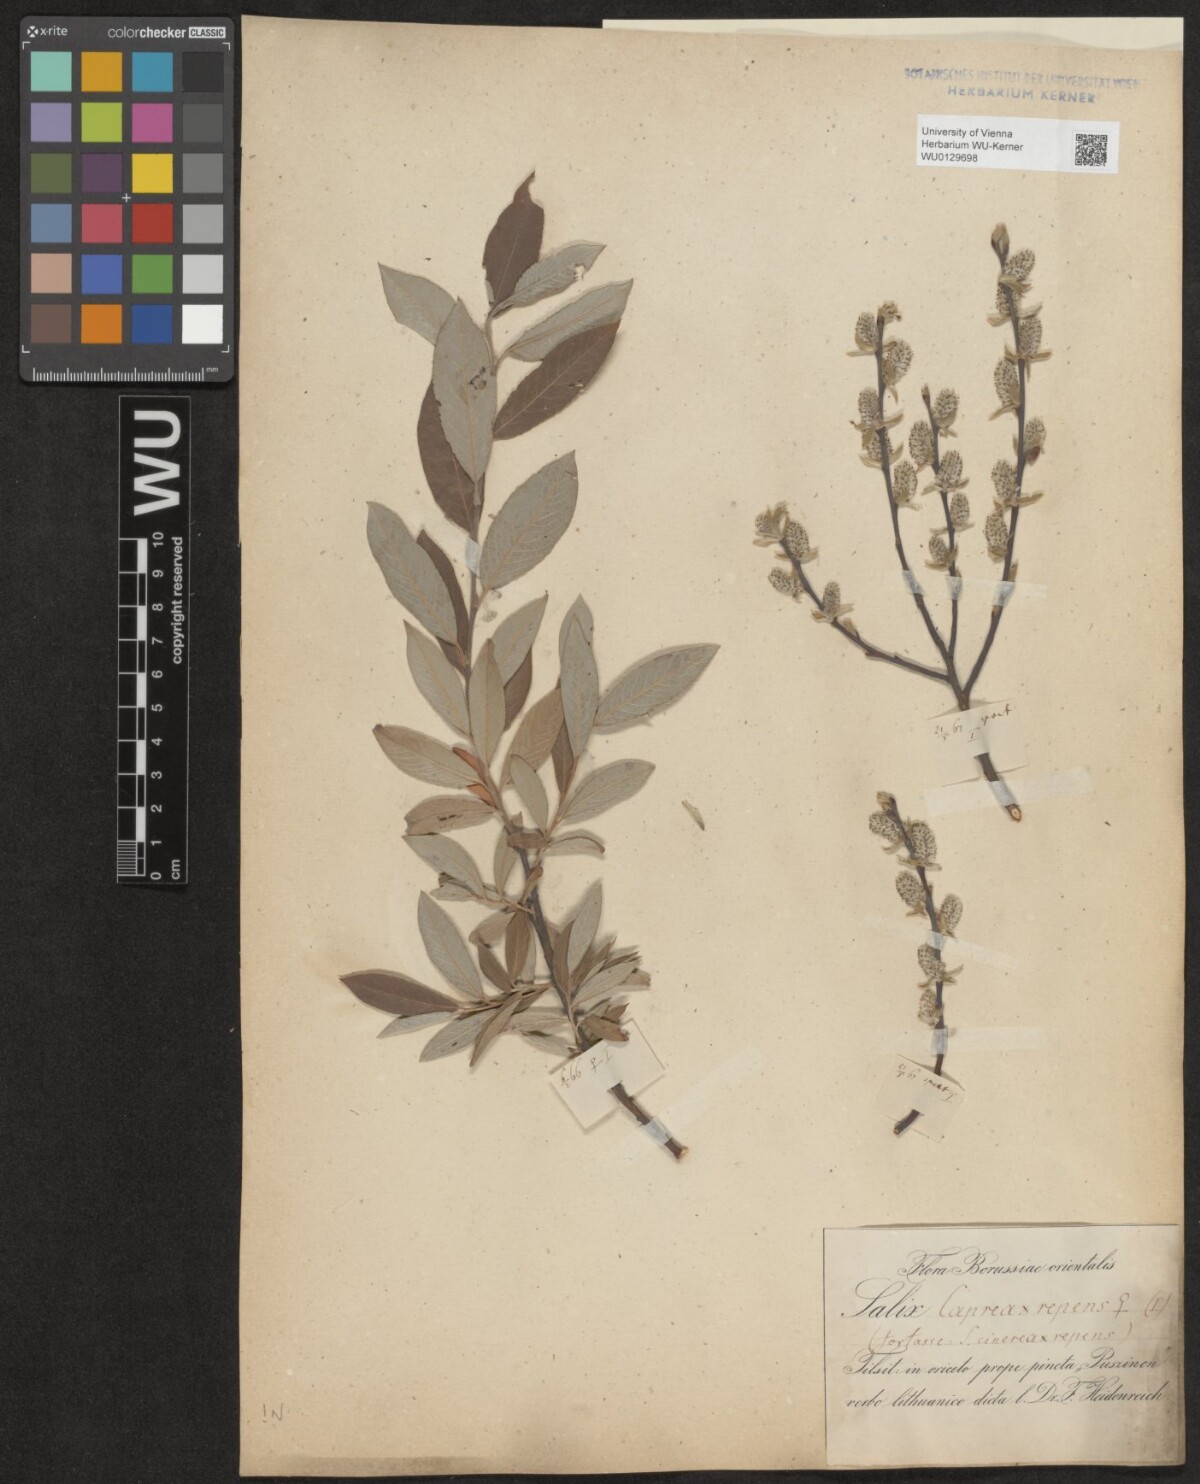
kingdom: Plantae
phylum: Tracheophyta
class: Magnoliopsida
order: Malpighiales
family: Salicaceae
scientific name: Salicaceae
